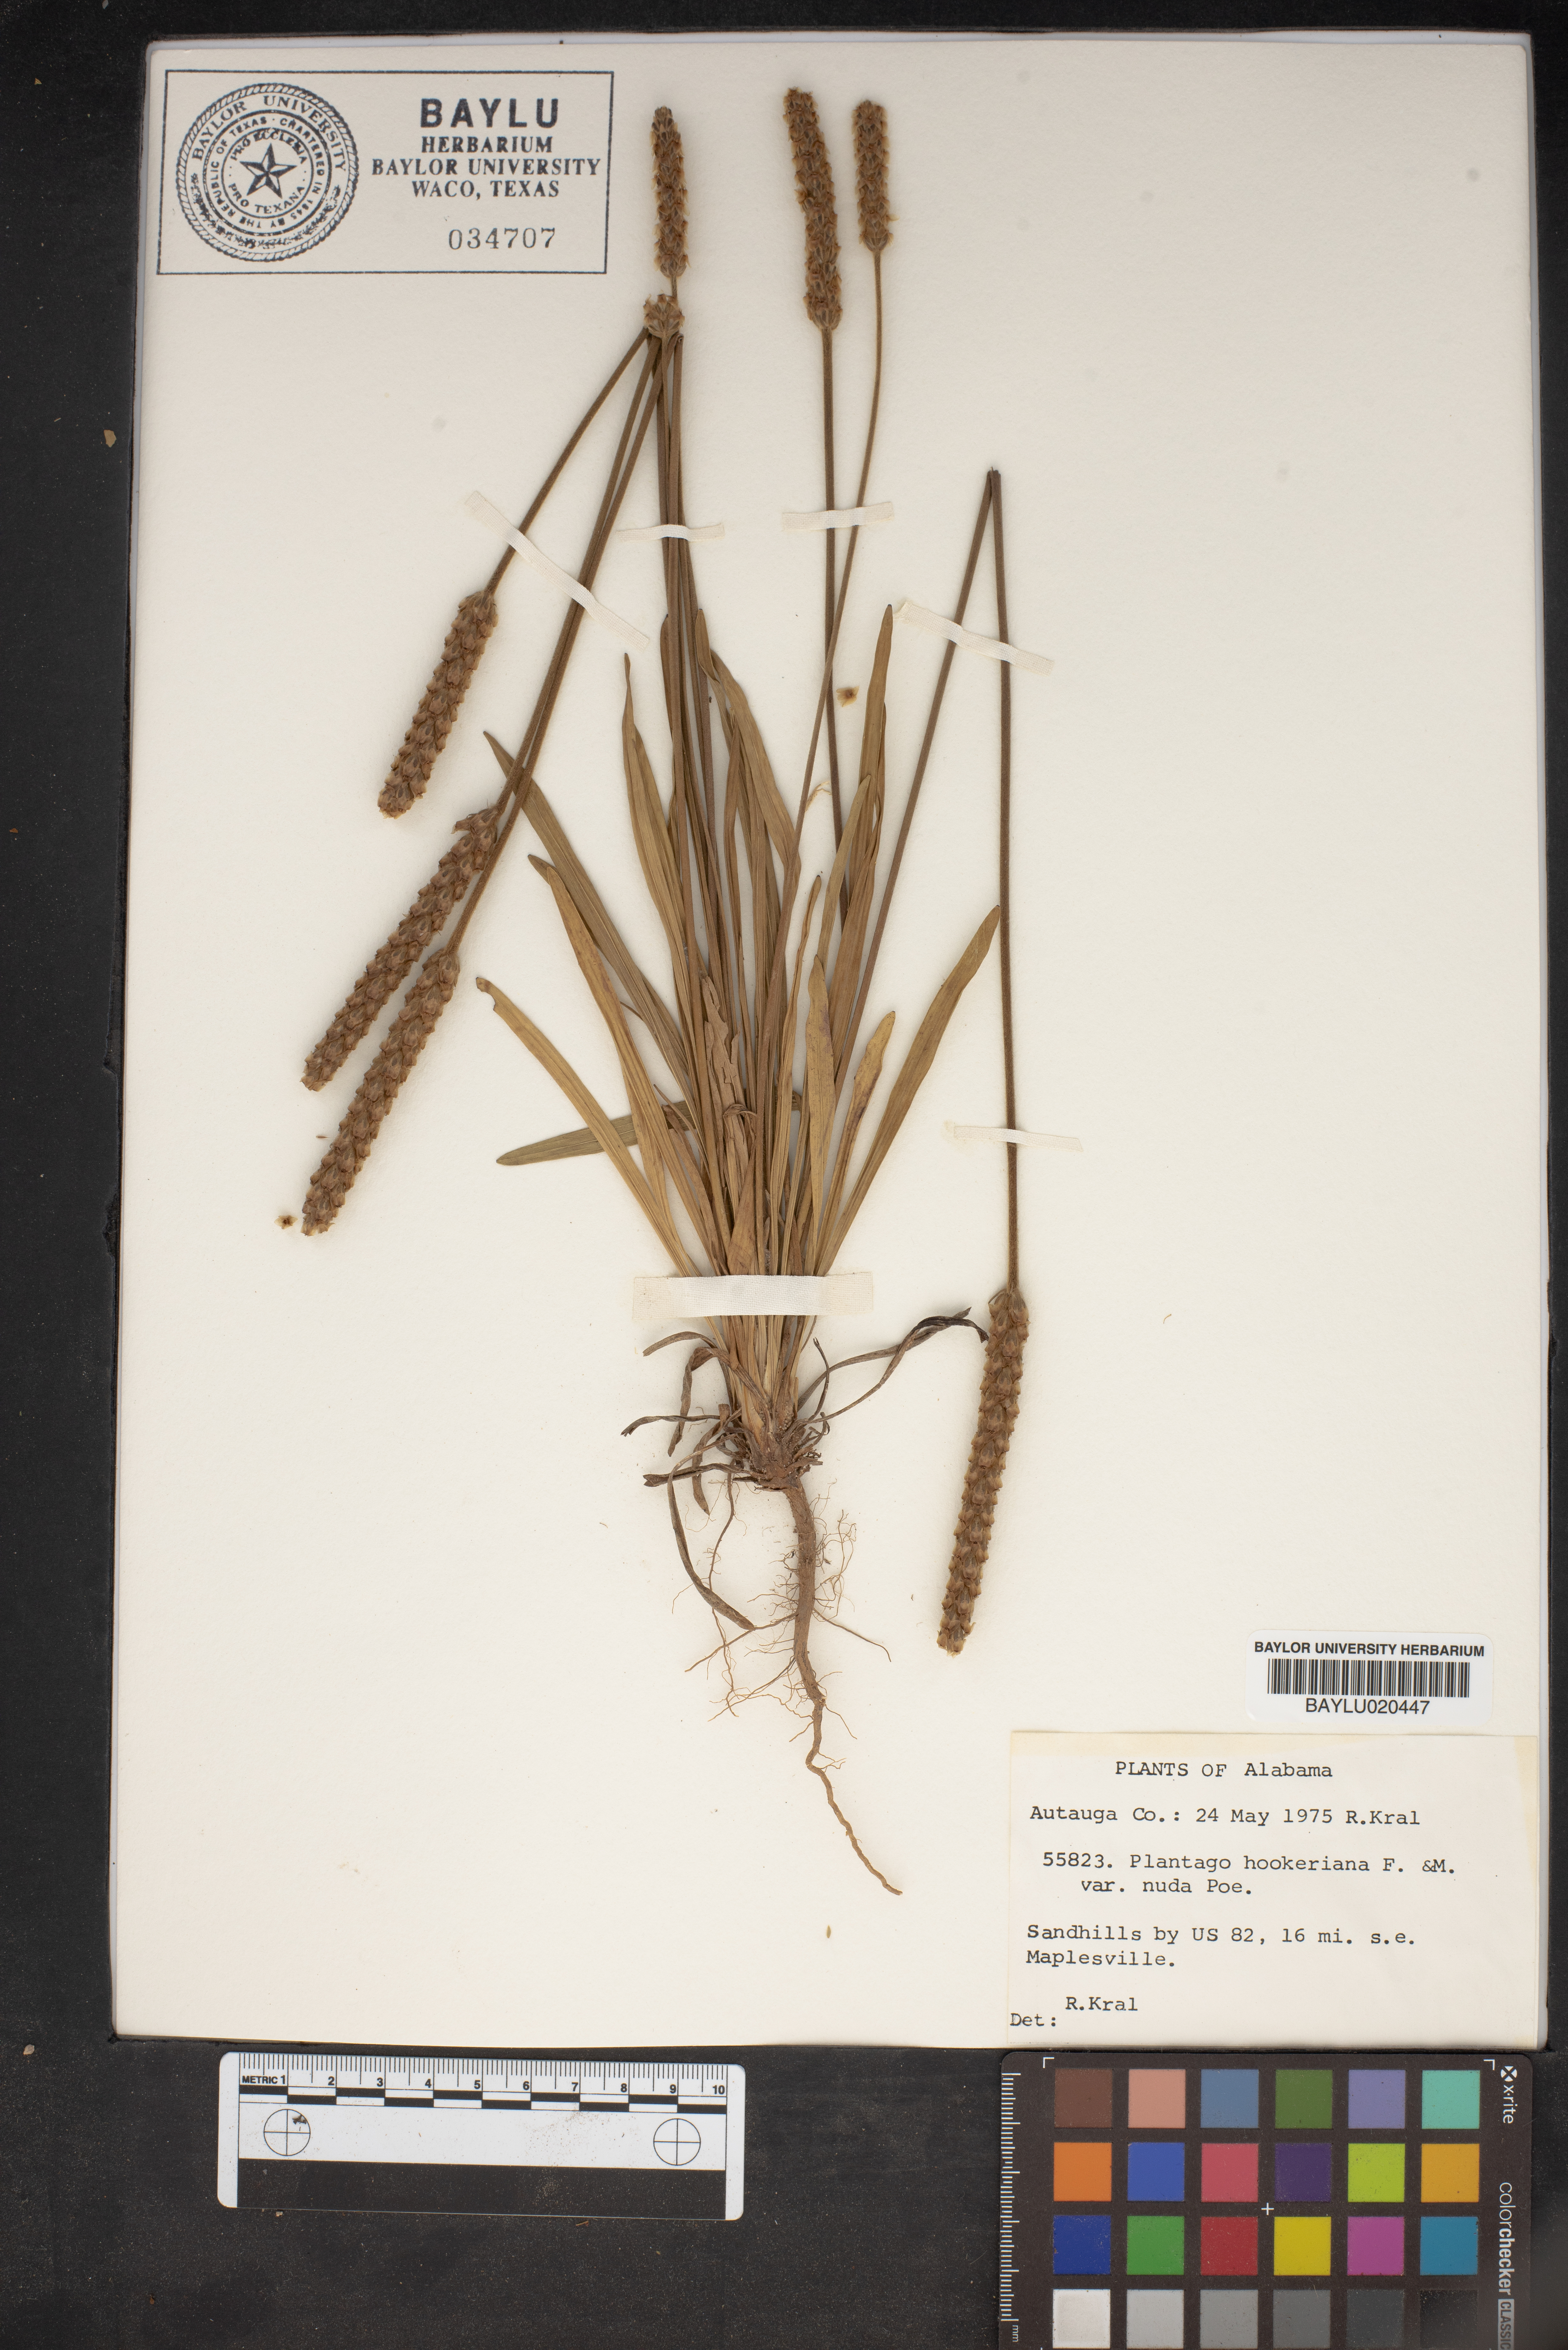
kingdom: Plantae
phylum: Tracheophyta
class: Magnoliopsida
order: Lamiales
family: Plantaginaceae
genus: Plantago
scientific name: Plantago hookeriana
